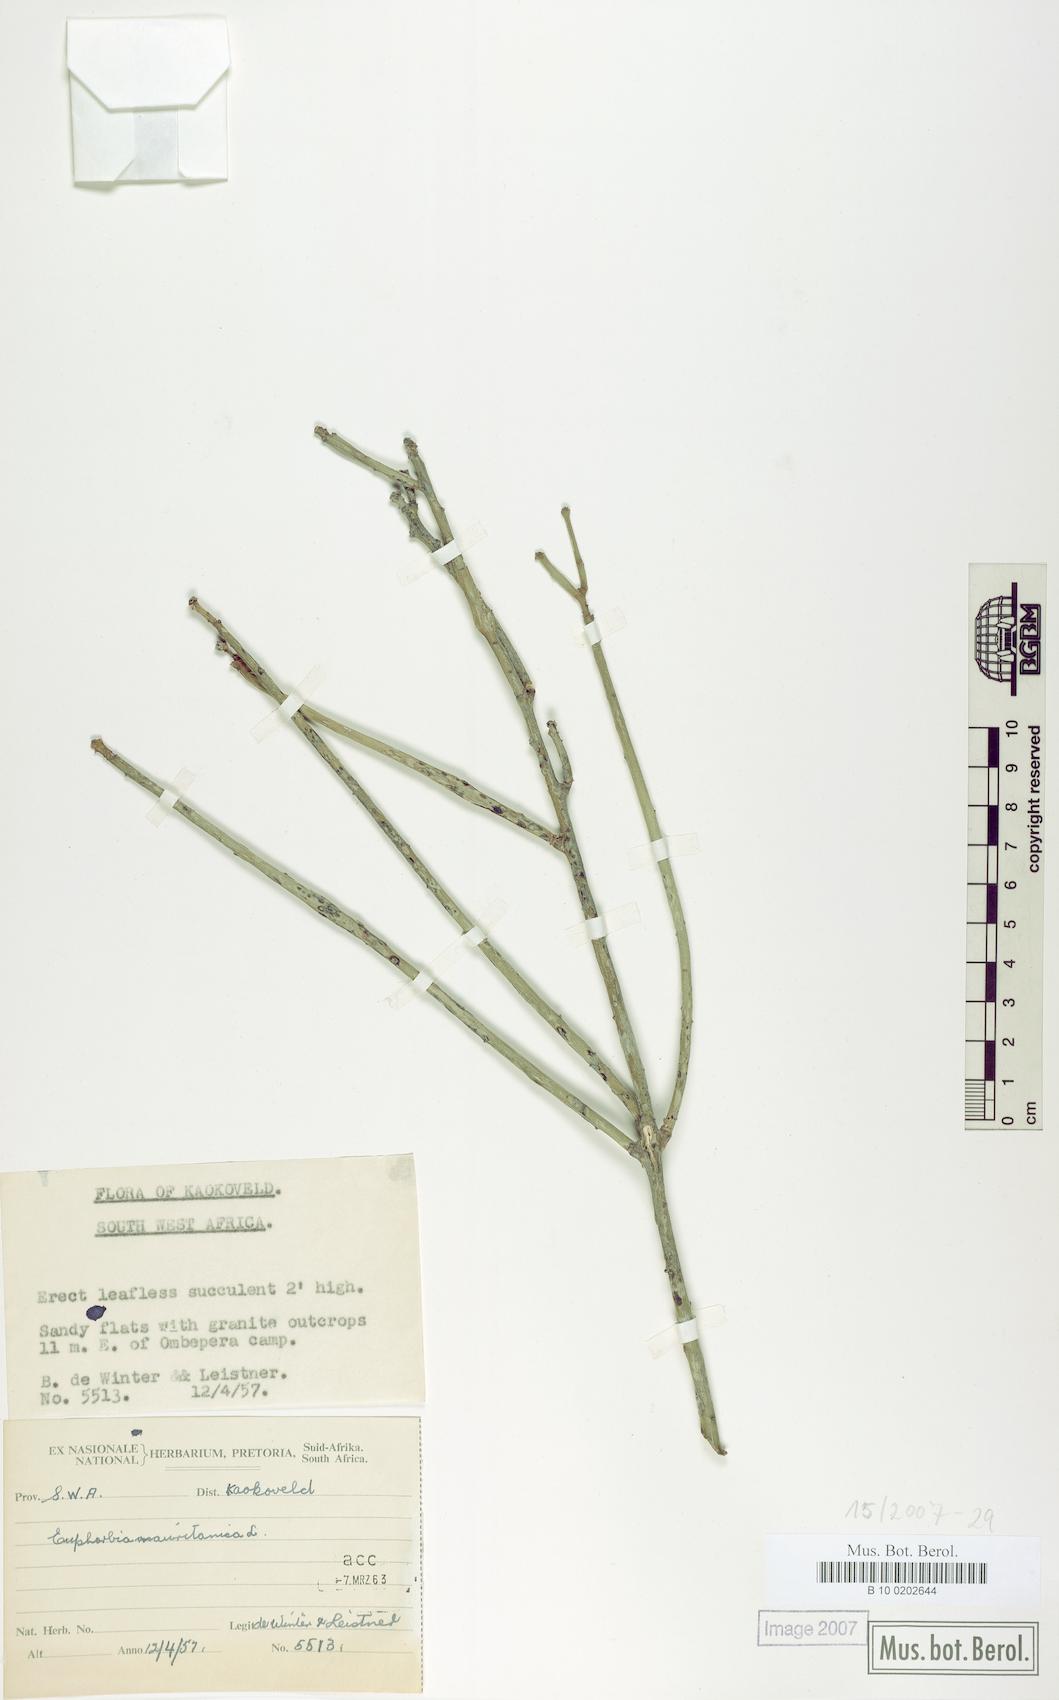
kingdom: Plantae
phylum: Tracheophyta
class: Magnoliopsida
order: Malpighiales
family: Euphorbiaceae
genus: Euphorbia
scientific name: Euphorbia mauritanica
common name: Jackal's-food
